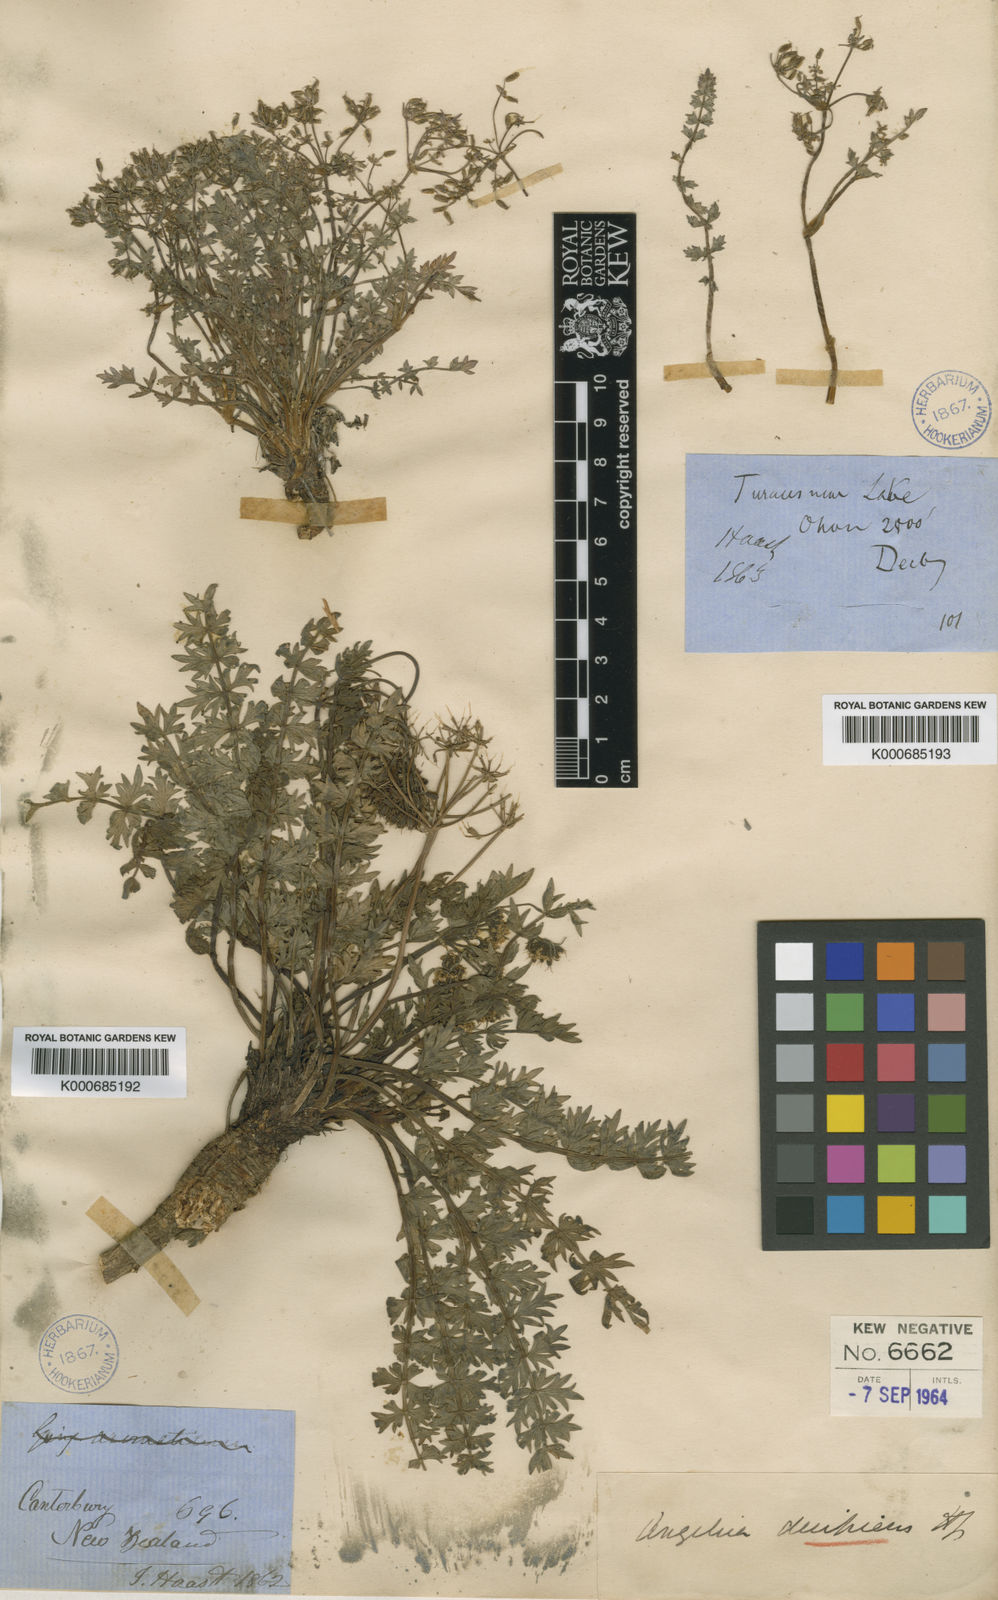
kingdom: Plantae
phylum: Tracheophyta
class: Magnoliopsida
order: Apiales
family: Apiaceae
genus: Gingidia
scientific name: Gingidia decipiens
